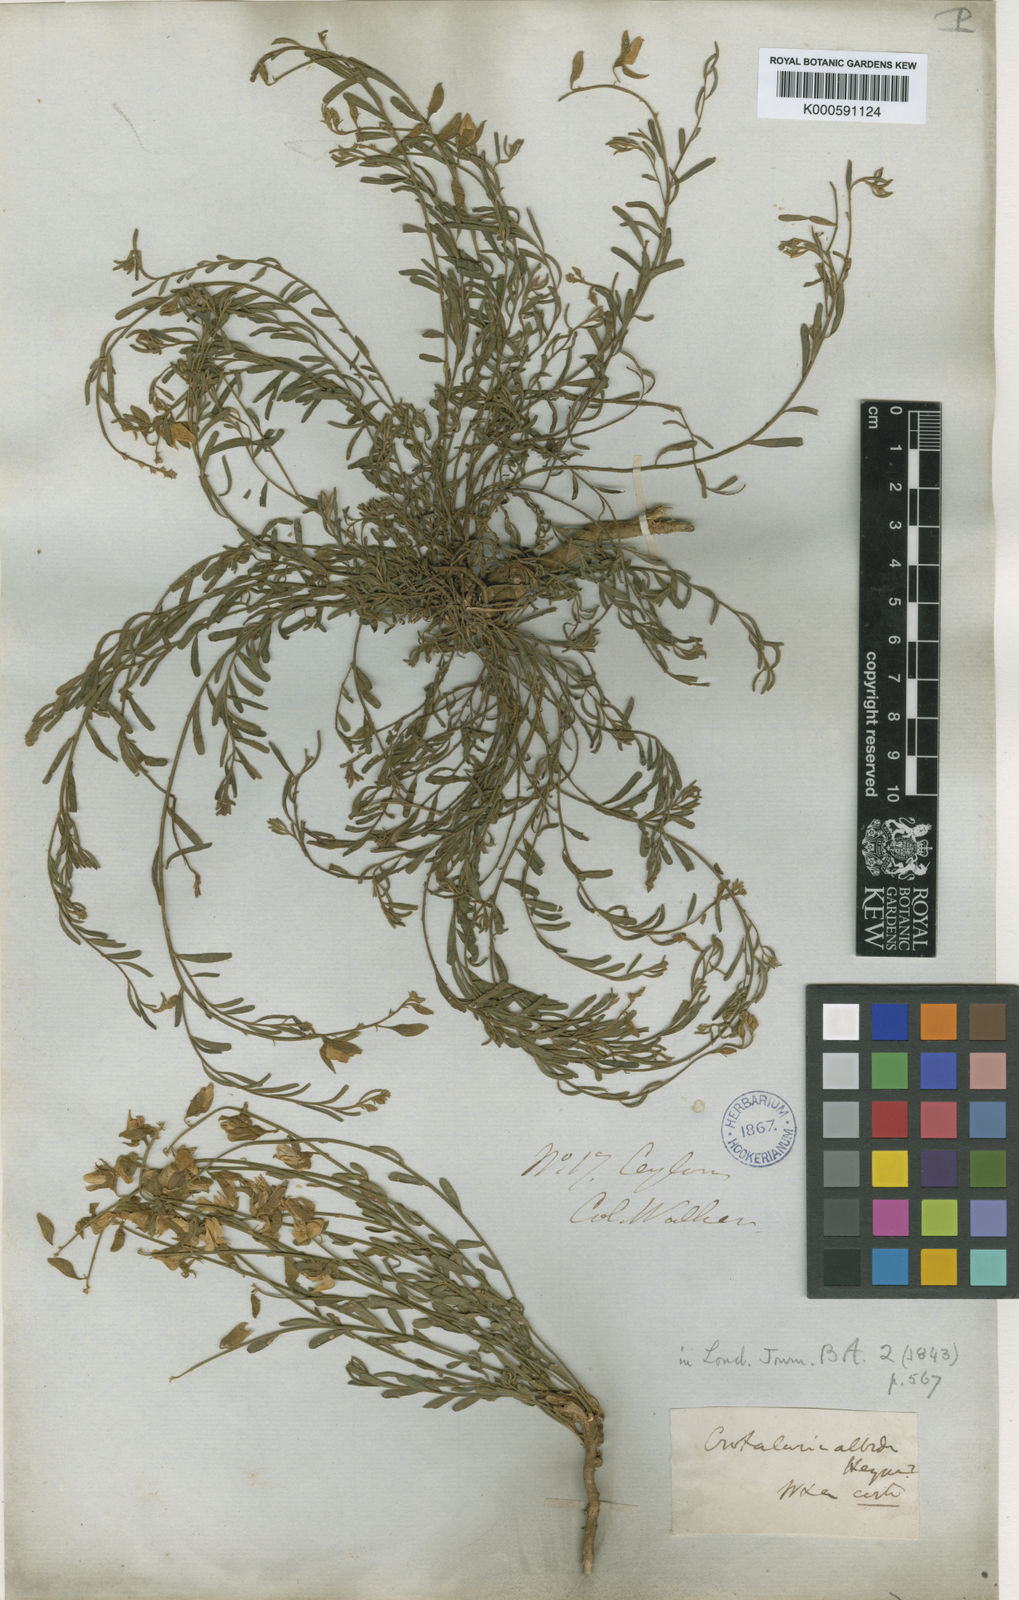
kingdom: Plantae
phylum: Tracheophyta
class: Magnoliopsida
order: Fabales
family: Fabaceae
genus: Crotalaria
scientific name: Crotalaria albida
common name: Taiwan crotalaria
